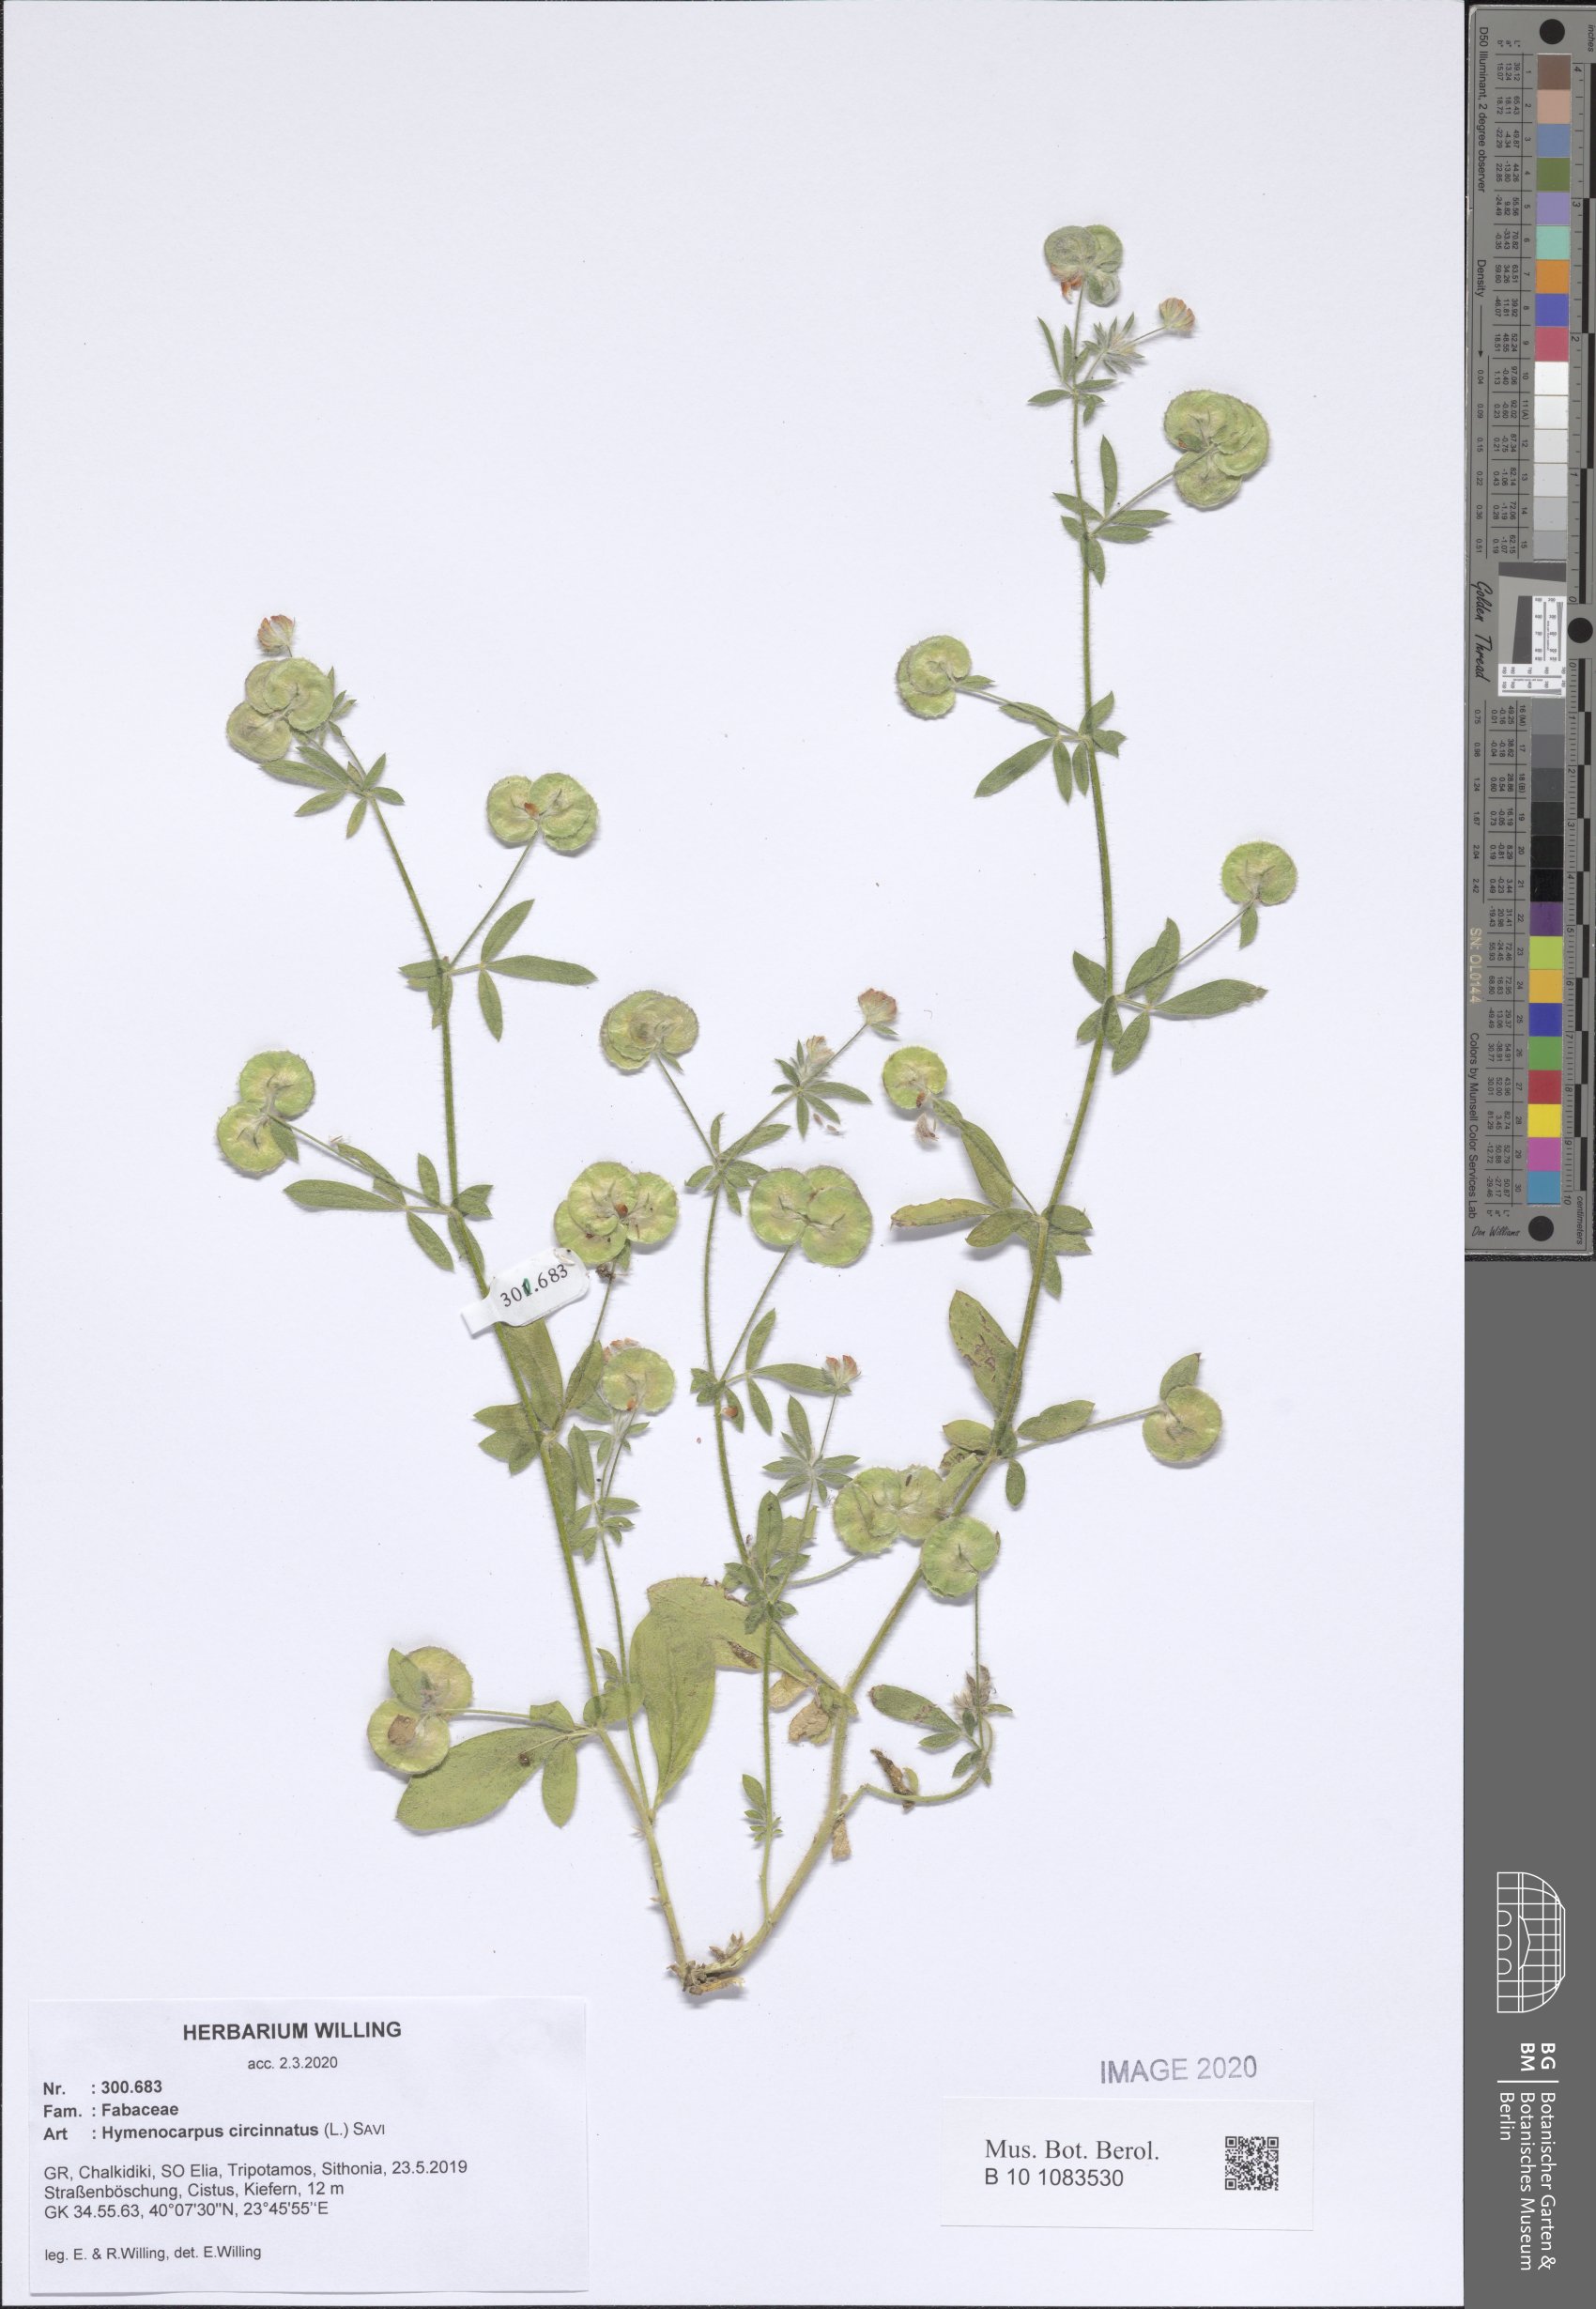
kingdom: Plantae
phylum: Tracheophyta
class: Magnoliopsida
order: Fabales
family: Fabaceae
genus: Anthyllis
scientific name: Anthyllis circinnata
